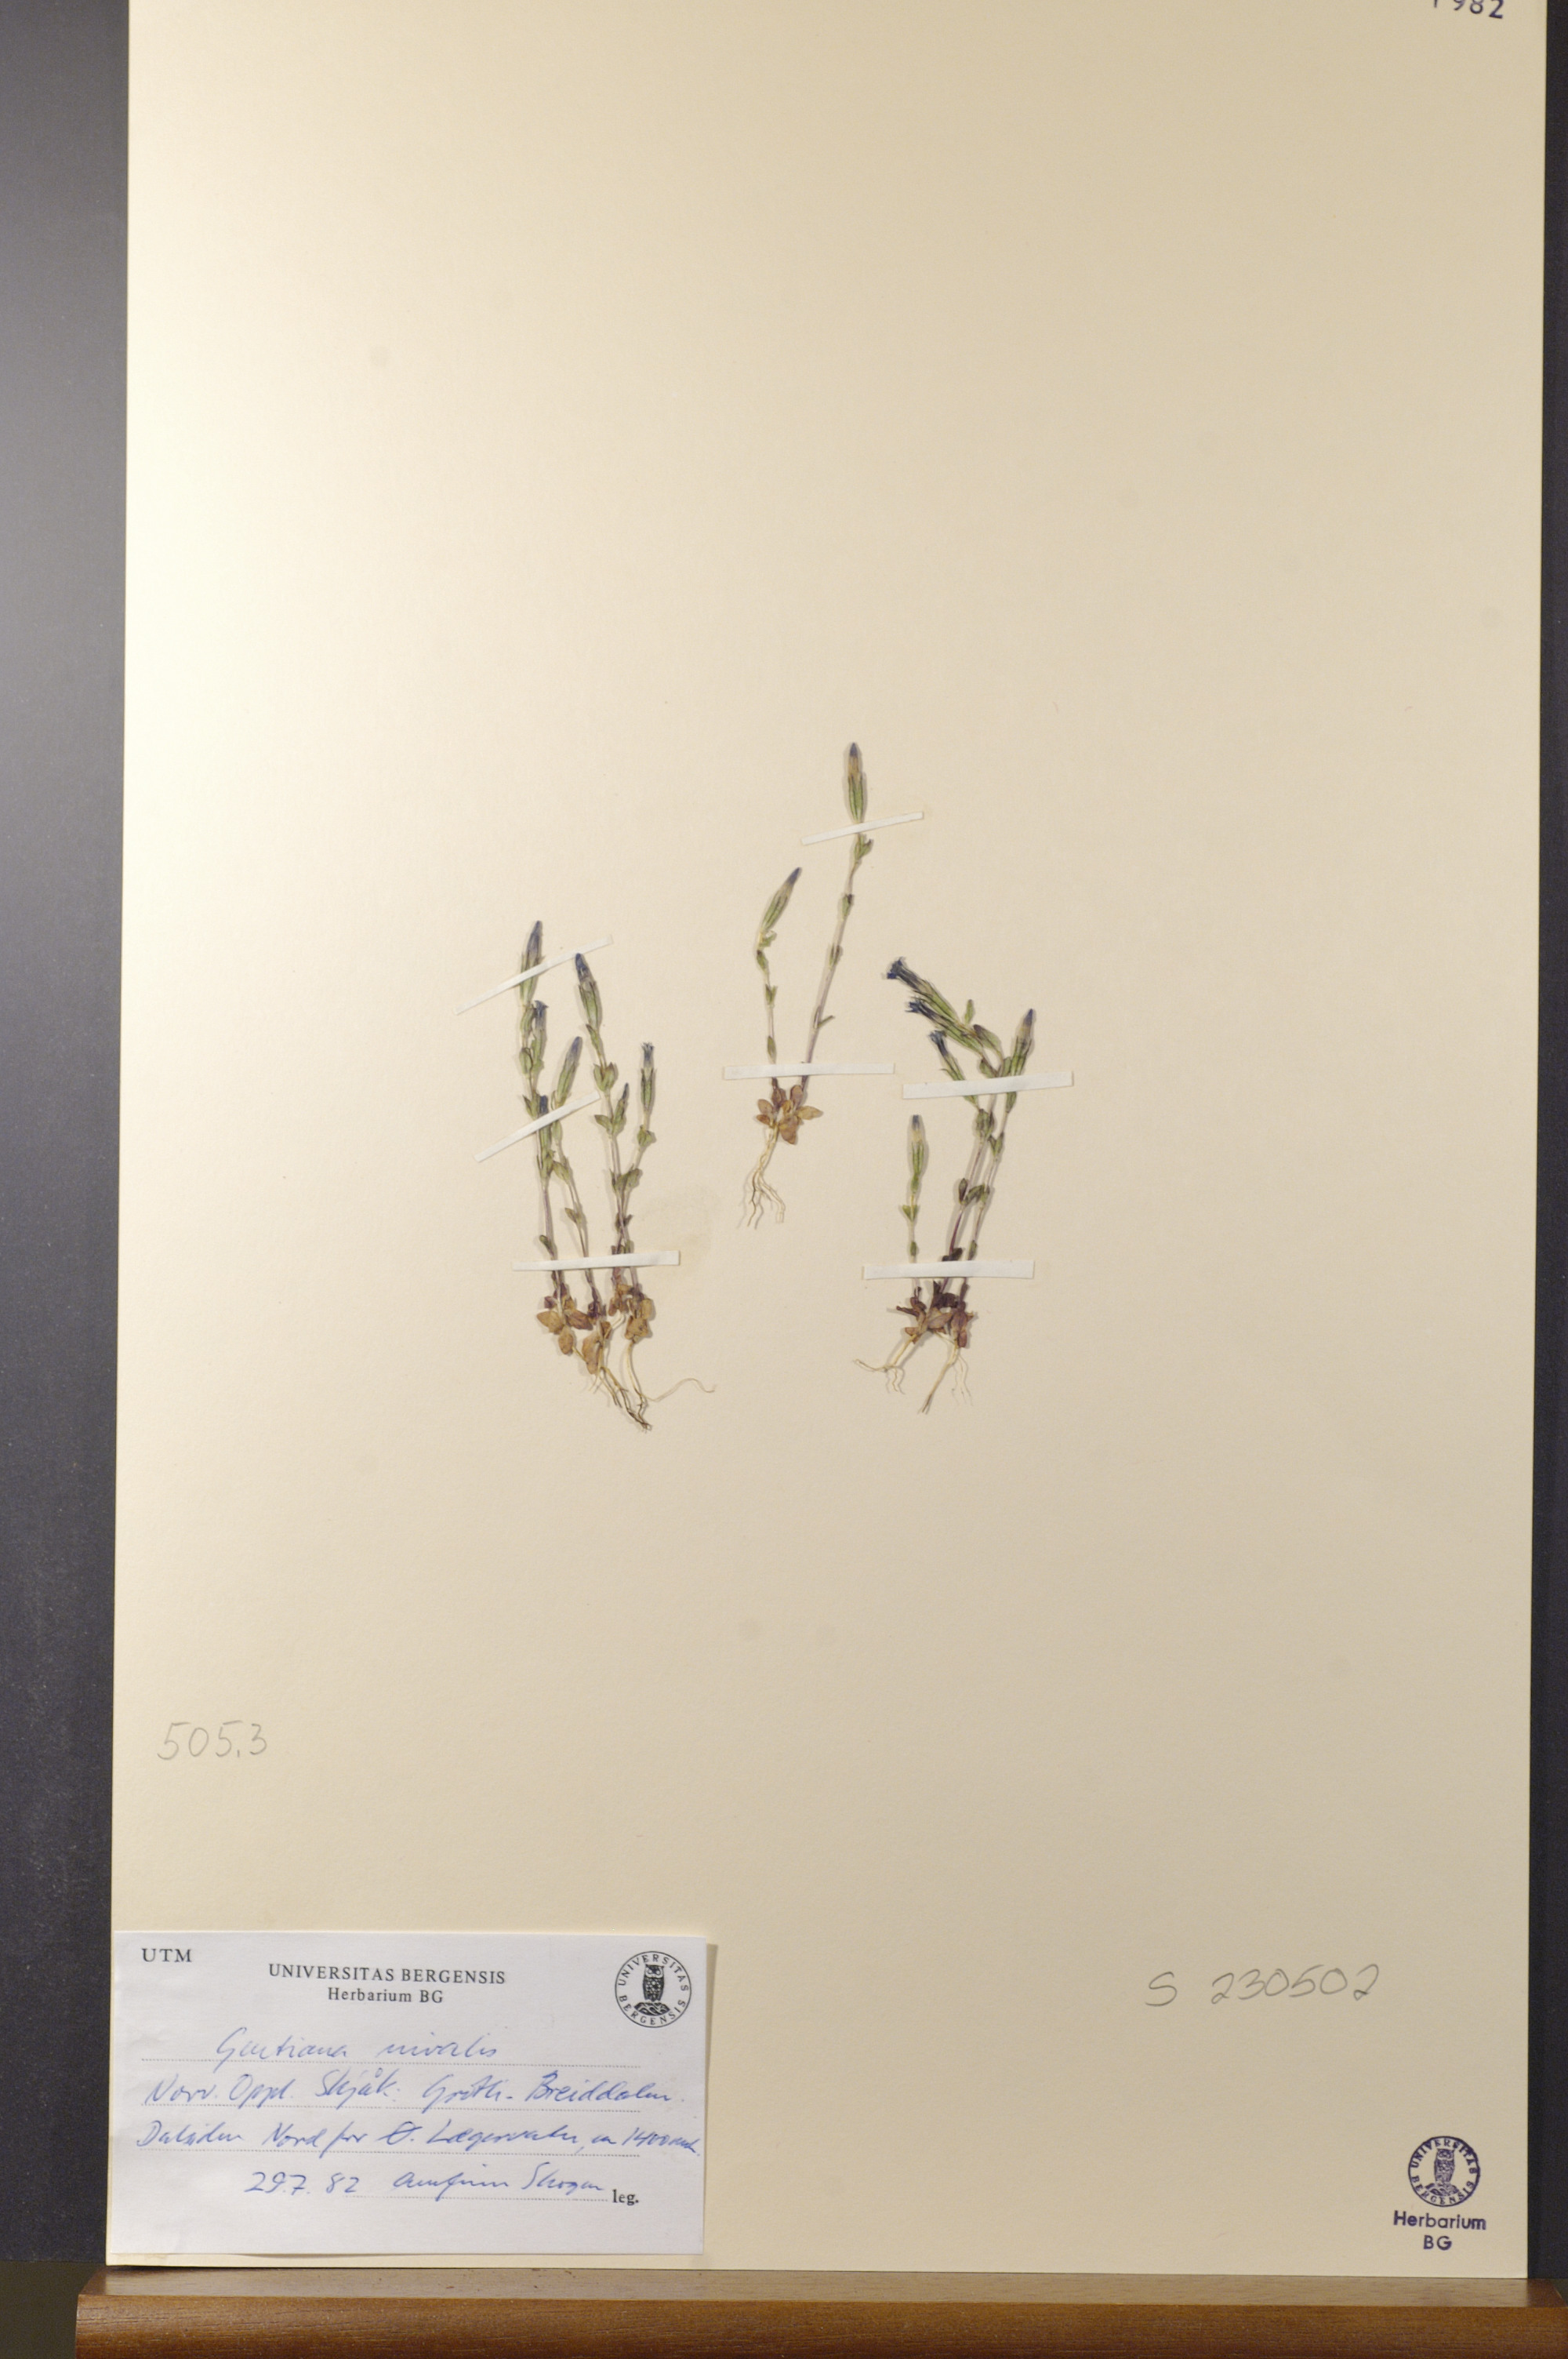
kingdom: Plantae
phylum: Tracheophyta
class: Magnoliopsida
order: Gentianales
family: Gentianaceae
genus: Gentiana
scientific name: Gentiana nivalis
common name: Alpine gentian
